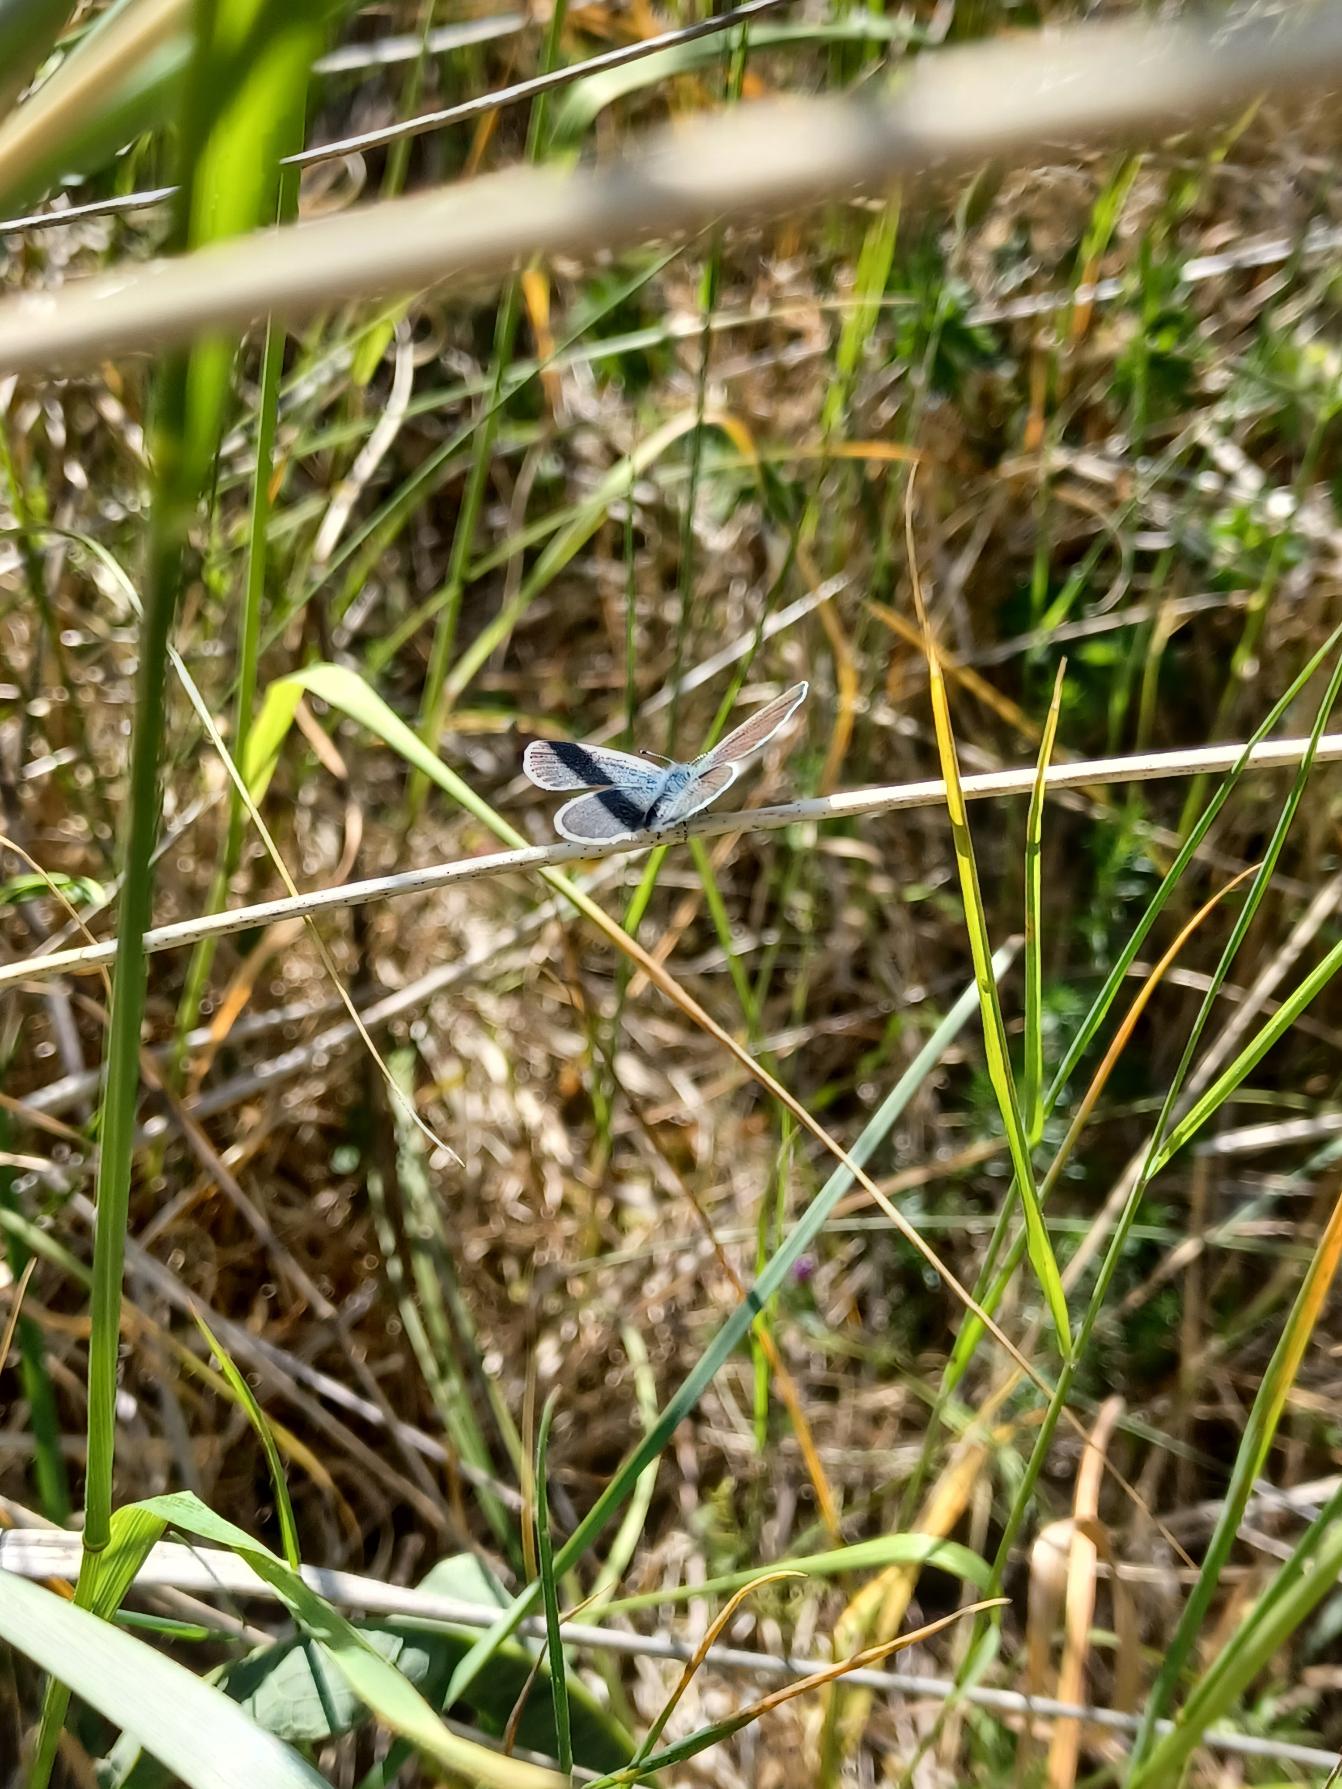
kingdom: Animalia
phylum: Arthropoda
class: Insecta
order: Lepidoptera
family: Lycaenidae
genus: Cupido
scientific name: Cupido minimus
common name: Dværgblåfugl
